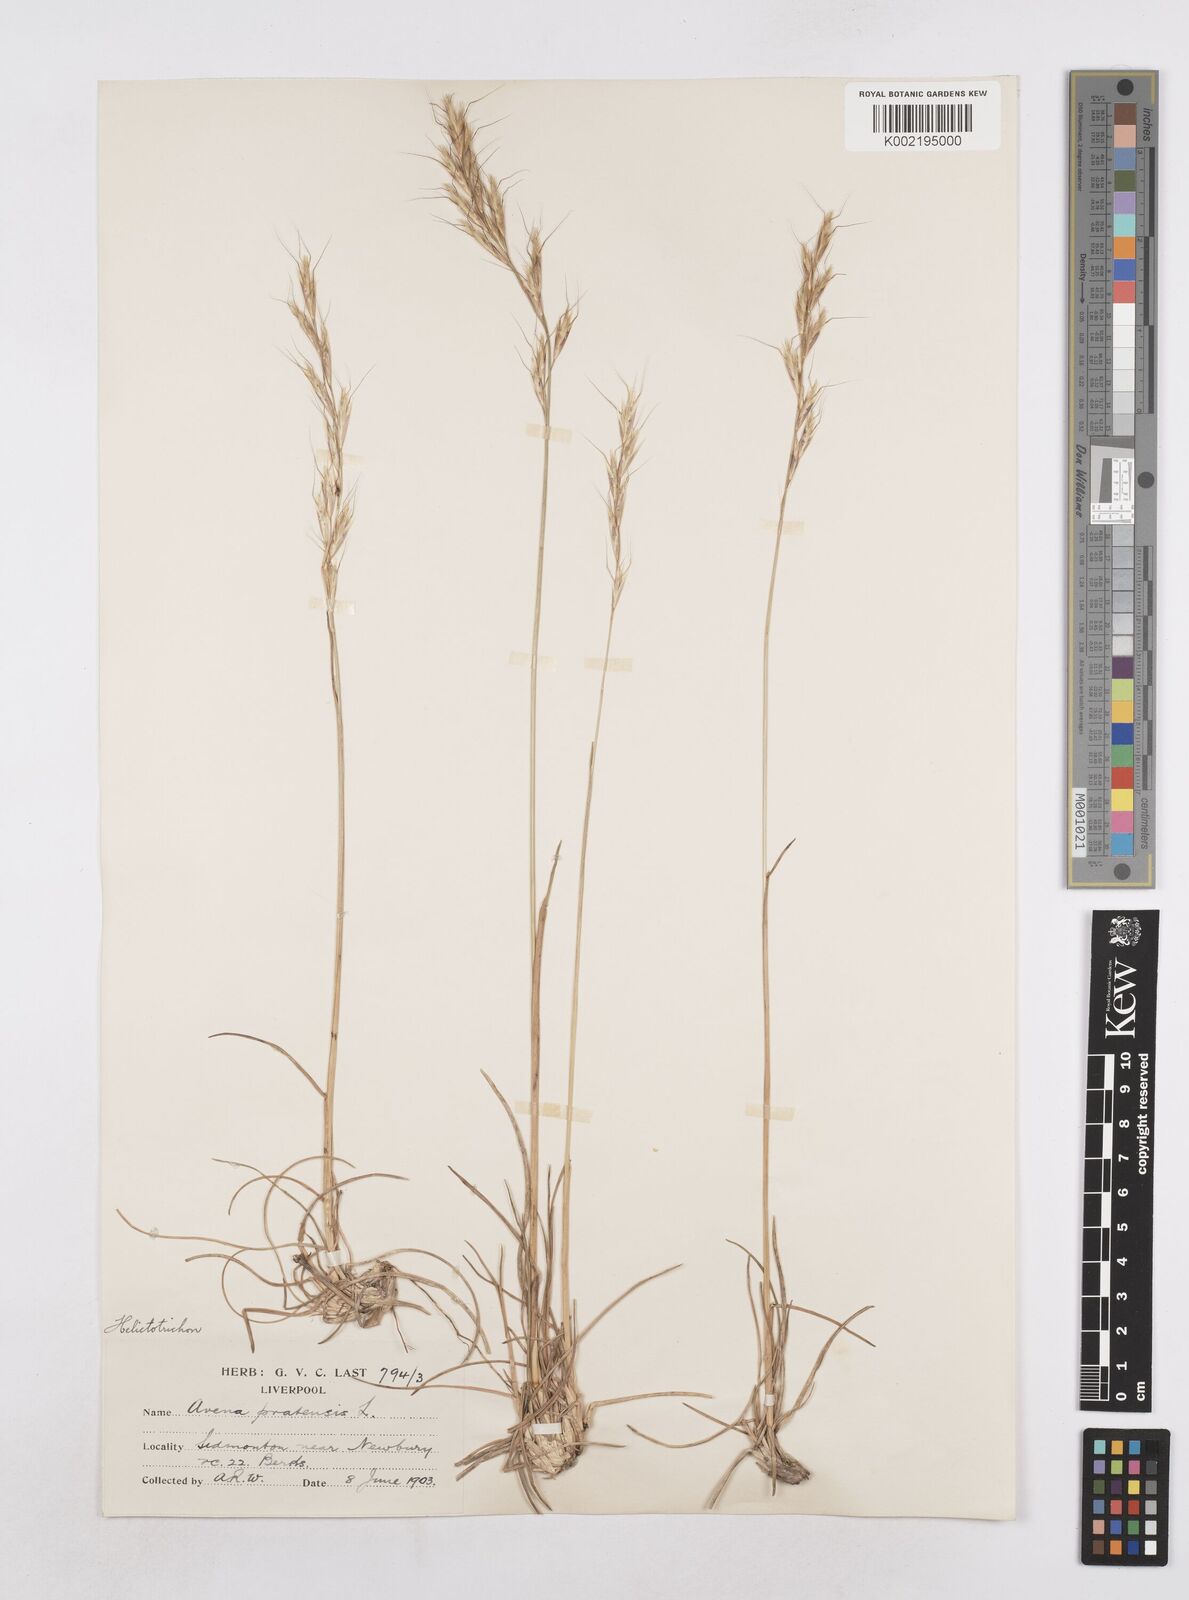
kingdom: Plantae
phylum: Tracheophyta
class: Liliopsida
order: Poales
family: Poaceae
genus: Helictochloa
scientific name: Helictochloa pratensis
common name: Meadow oat grass
